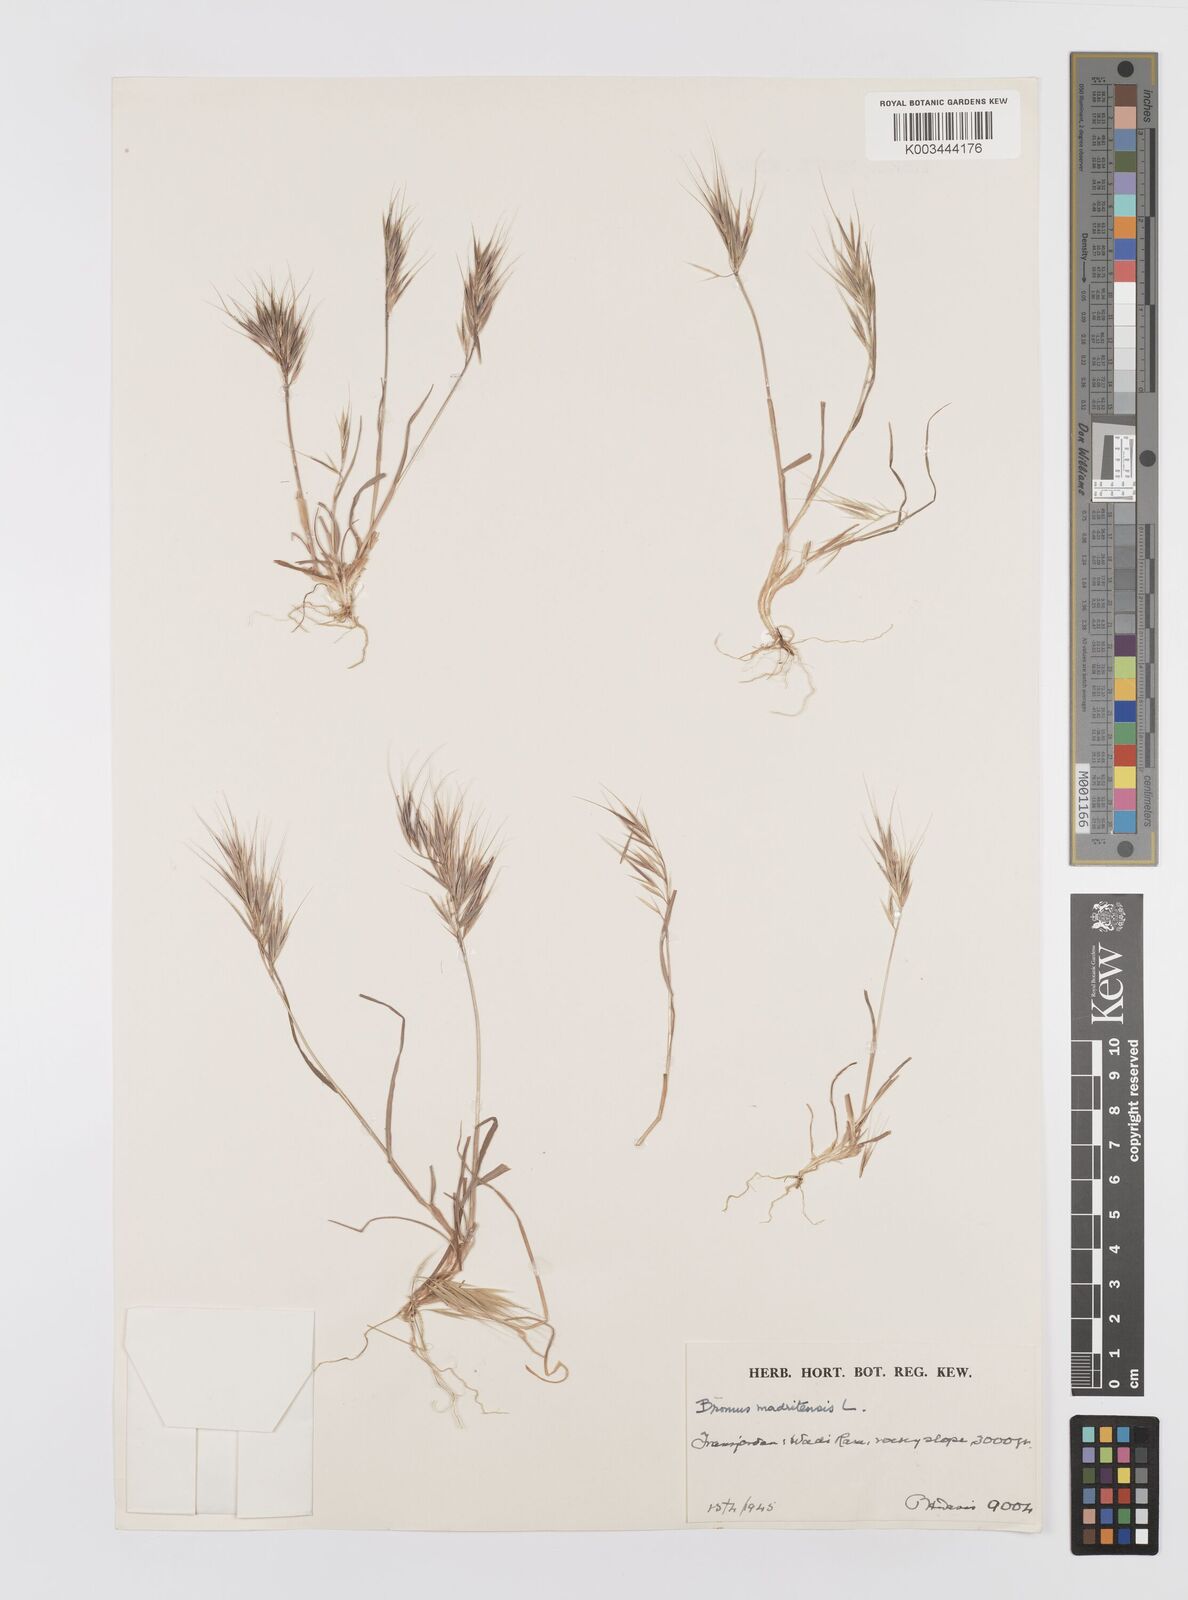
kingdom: Plantae
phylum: Tracheophyta
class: Liliopsida
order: Poales
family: Poaceae
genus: Bromus
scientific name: Bromus madritensis
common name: Compact brome
